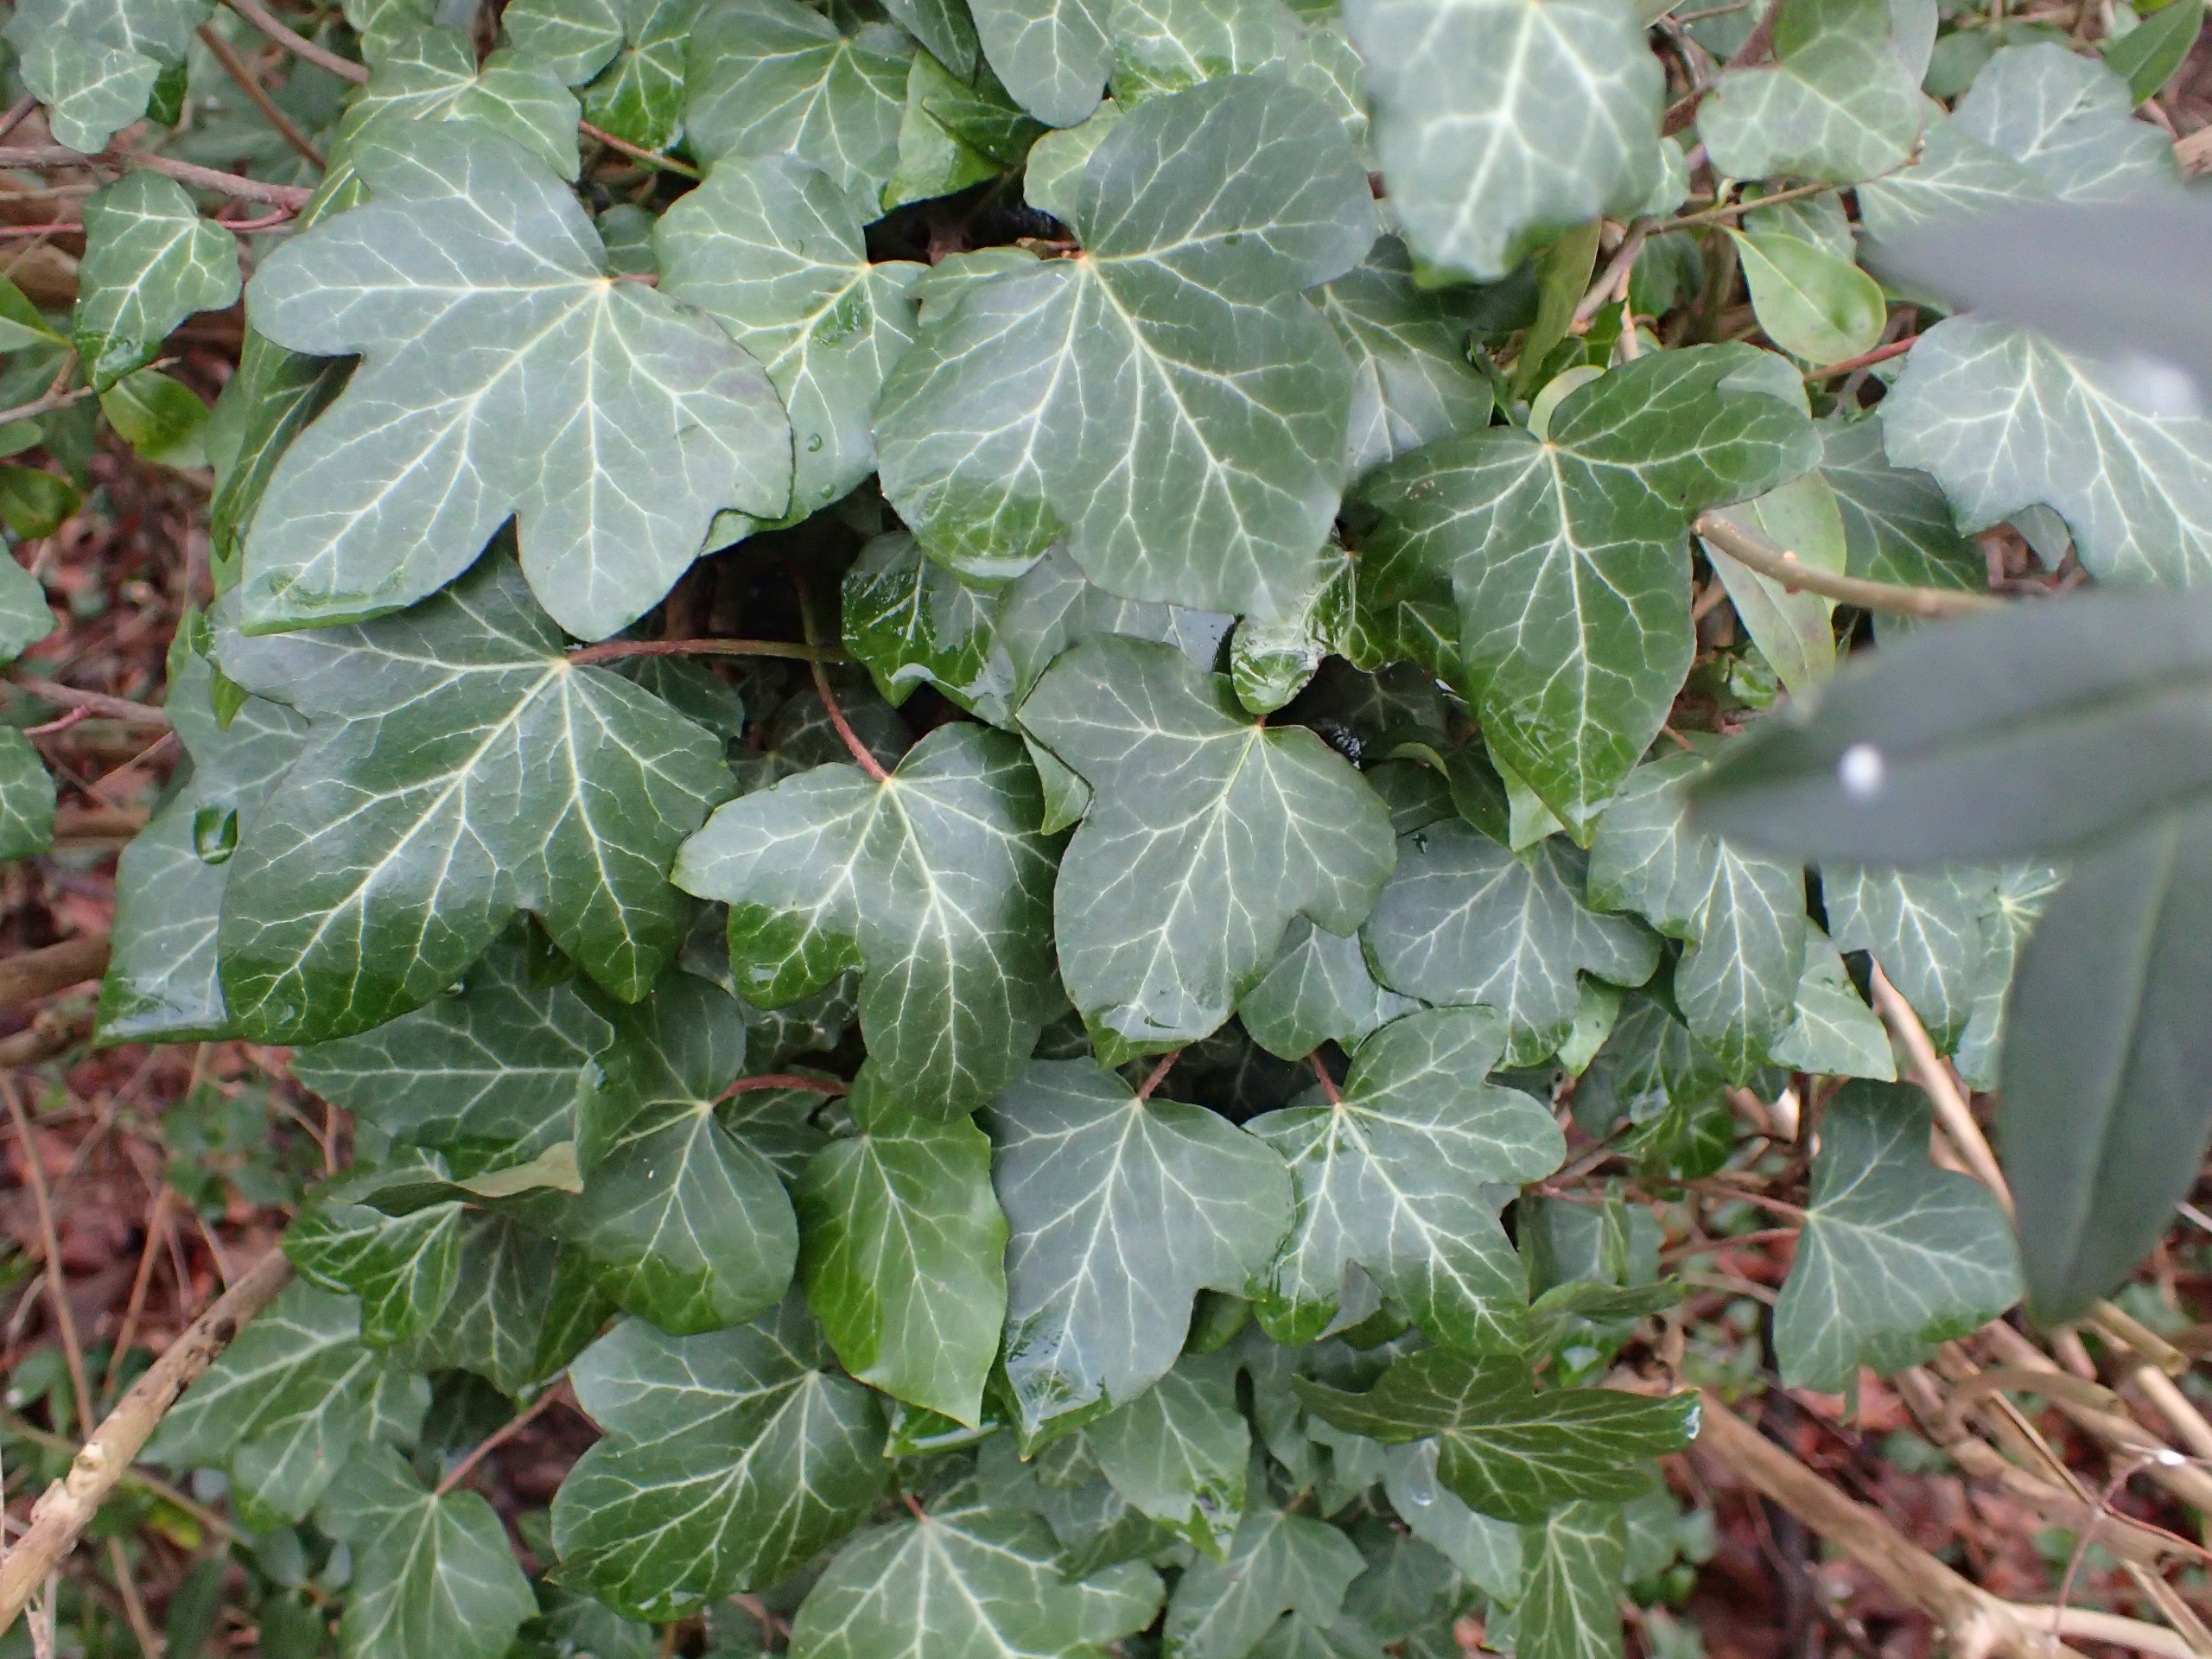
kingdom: Plantae
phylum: Tracheophyta
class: Magnoliopsida
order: Apiales
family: Araliaceae
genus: Hedera
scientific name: Hedera helix
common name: Vedbend
